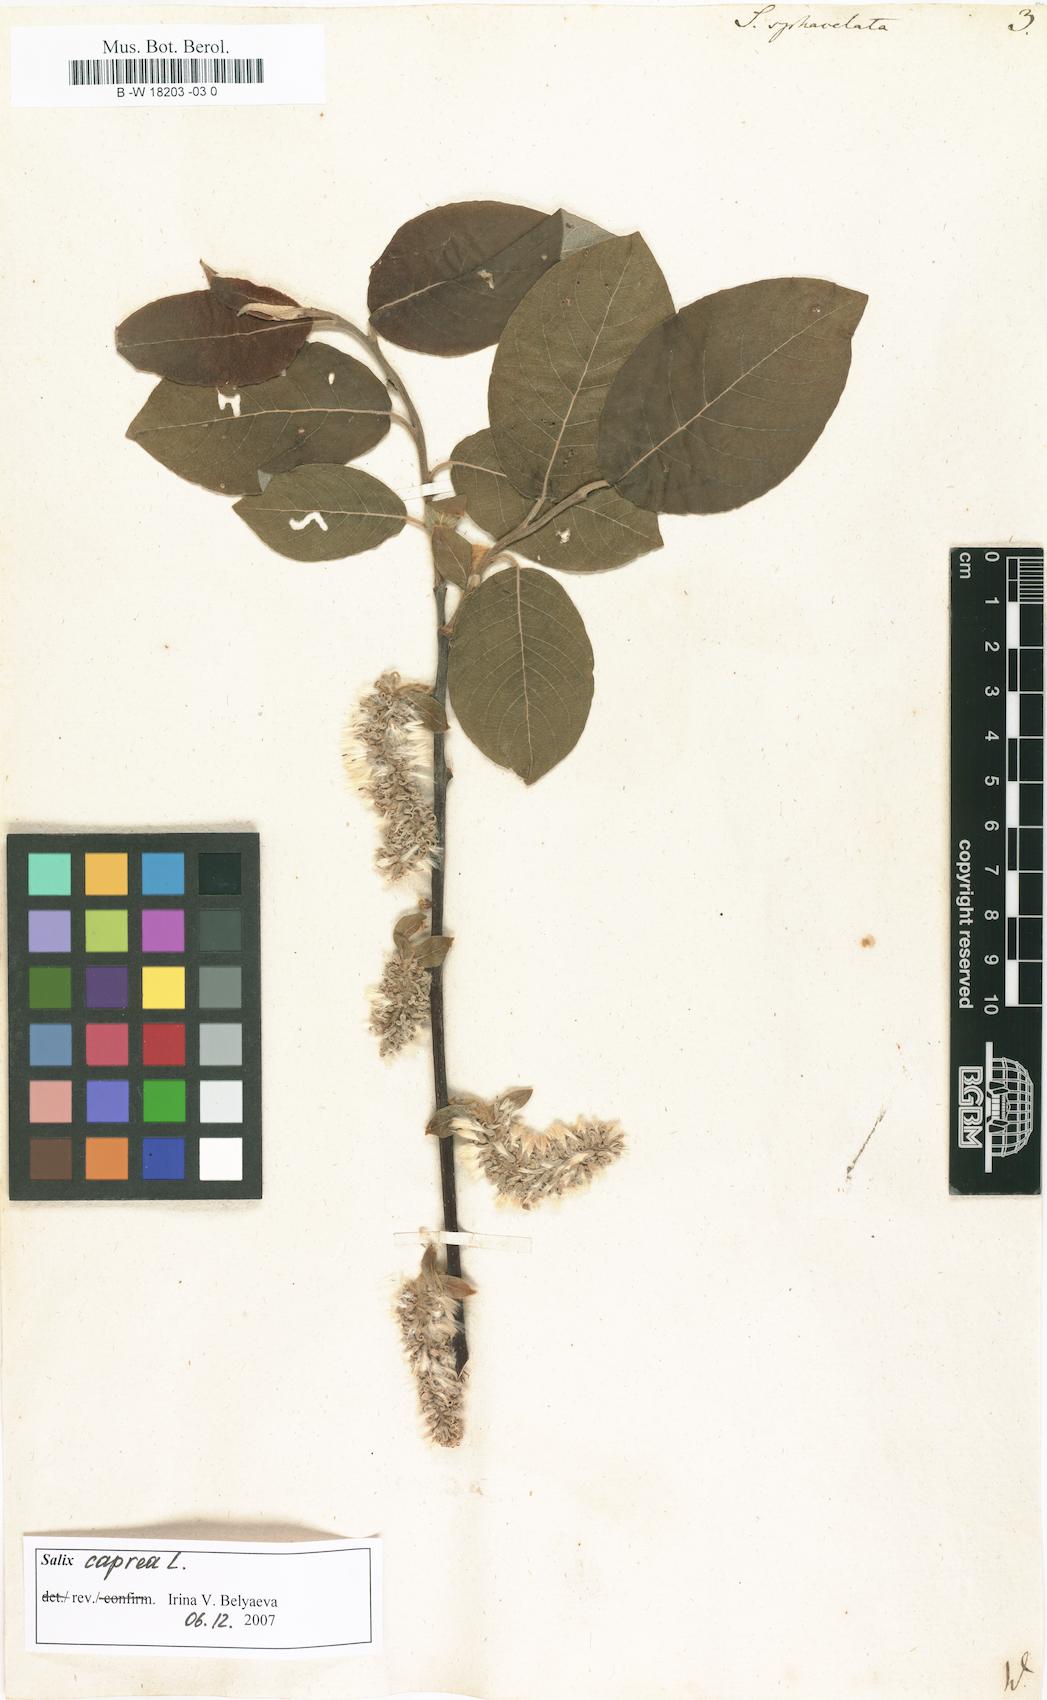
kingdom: Plantae
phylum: Tracheophyta
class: Magnoliopsida
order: Malpighiales
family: Salicaceae
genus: Salix
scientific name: Salix
